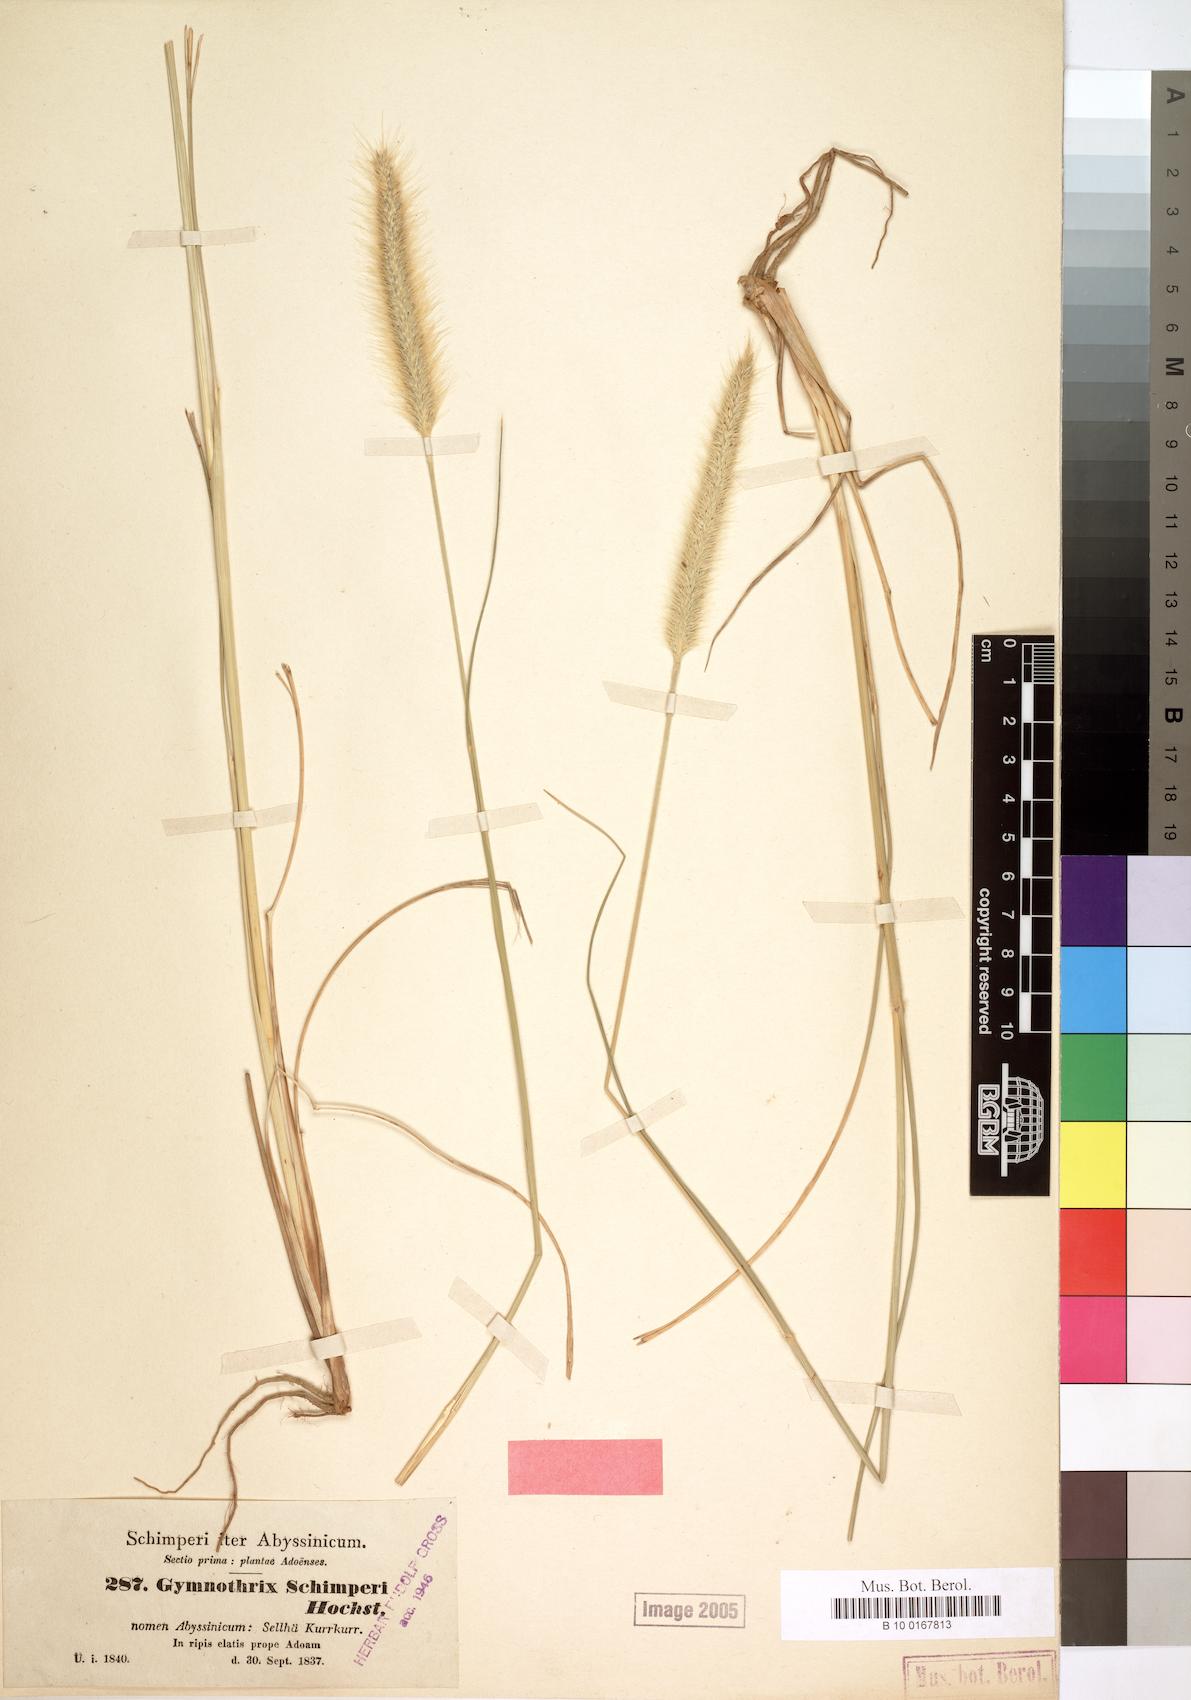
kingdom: Plantae
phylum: Tracheophyta
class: Liliopsida
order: Poales
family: Poaceae
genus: Cenchrus
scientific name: Cenchrus sphacelatus
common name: Bulgras
